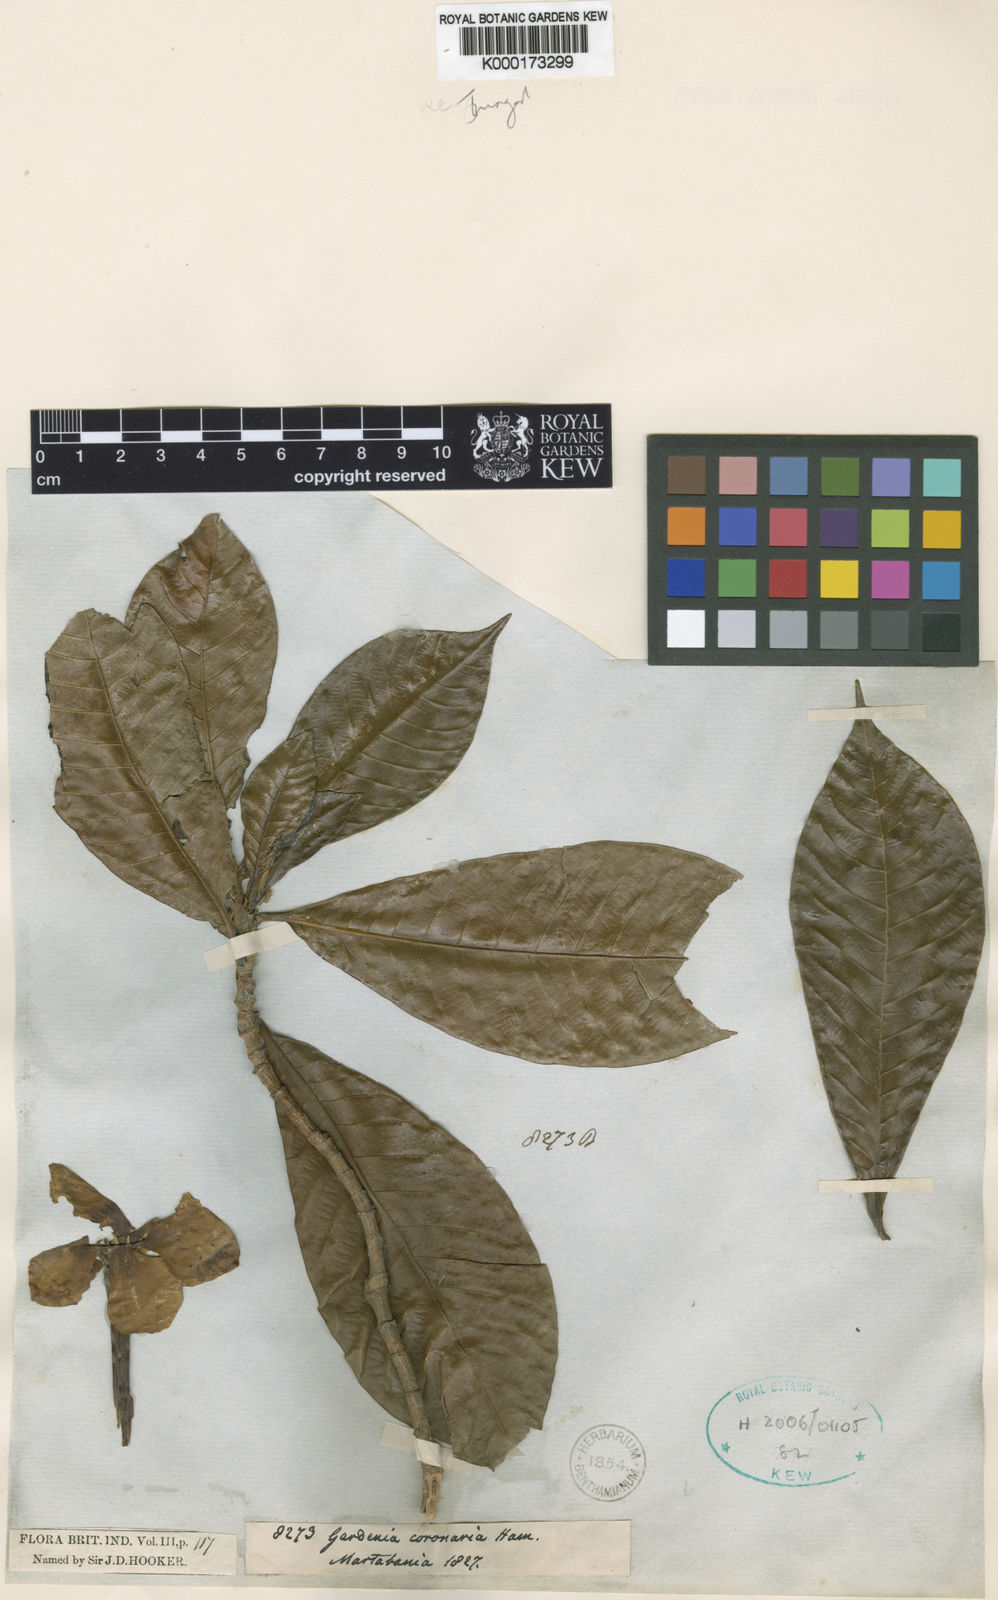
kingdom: Plantae
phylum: Tracheophyta
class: Magnoliopsida
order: Gentianales
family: Rubiaceae
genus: Gardenia
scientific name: Gardenia
